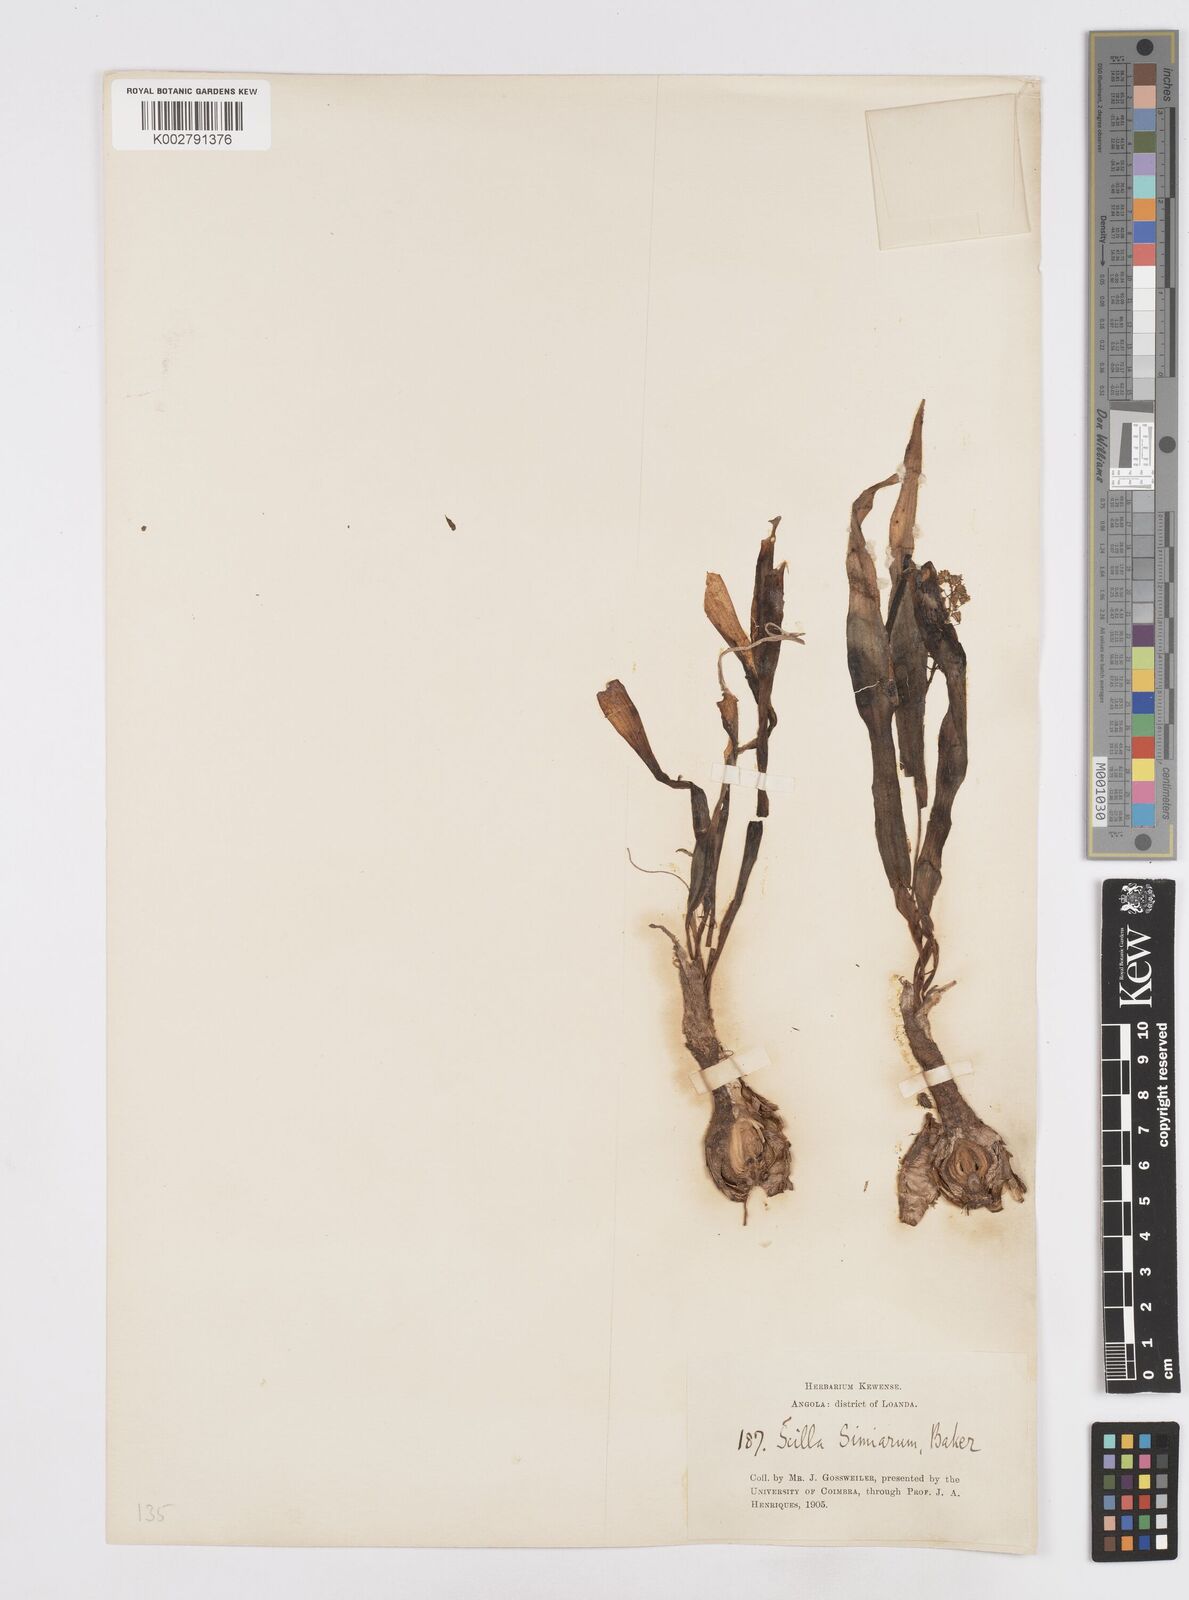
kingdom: Plantae
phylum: Tracheophyta
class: Liliopsida
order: Asparagales
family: Asparagaceae
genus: Scilla
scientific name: Scilla simiarum
